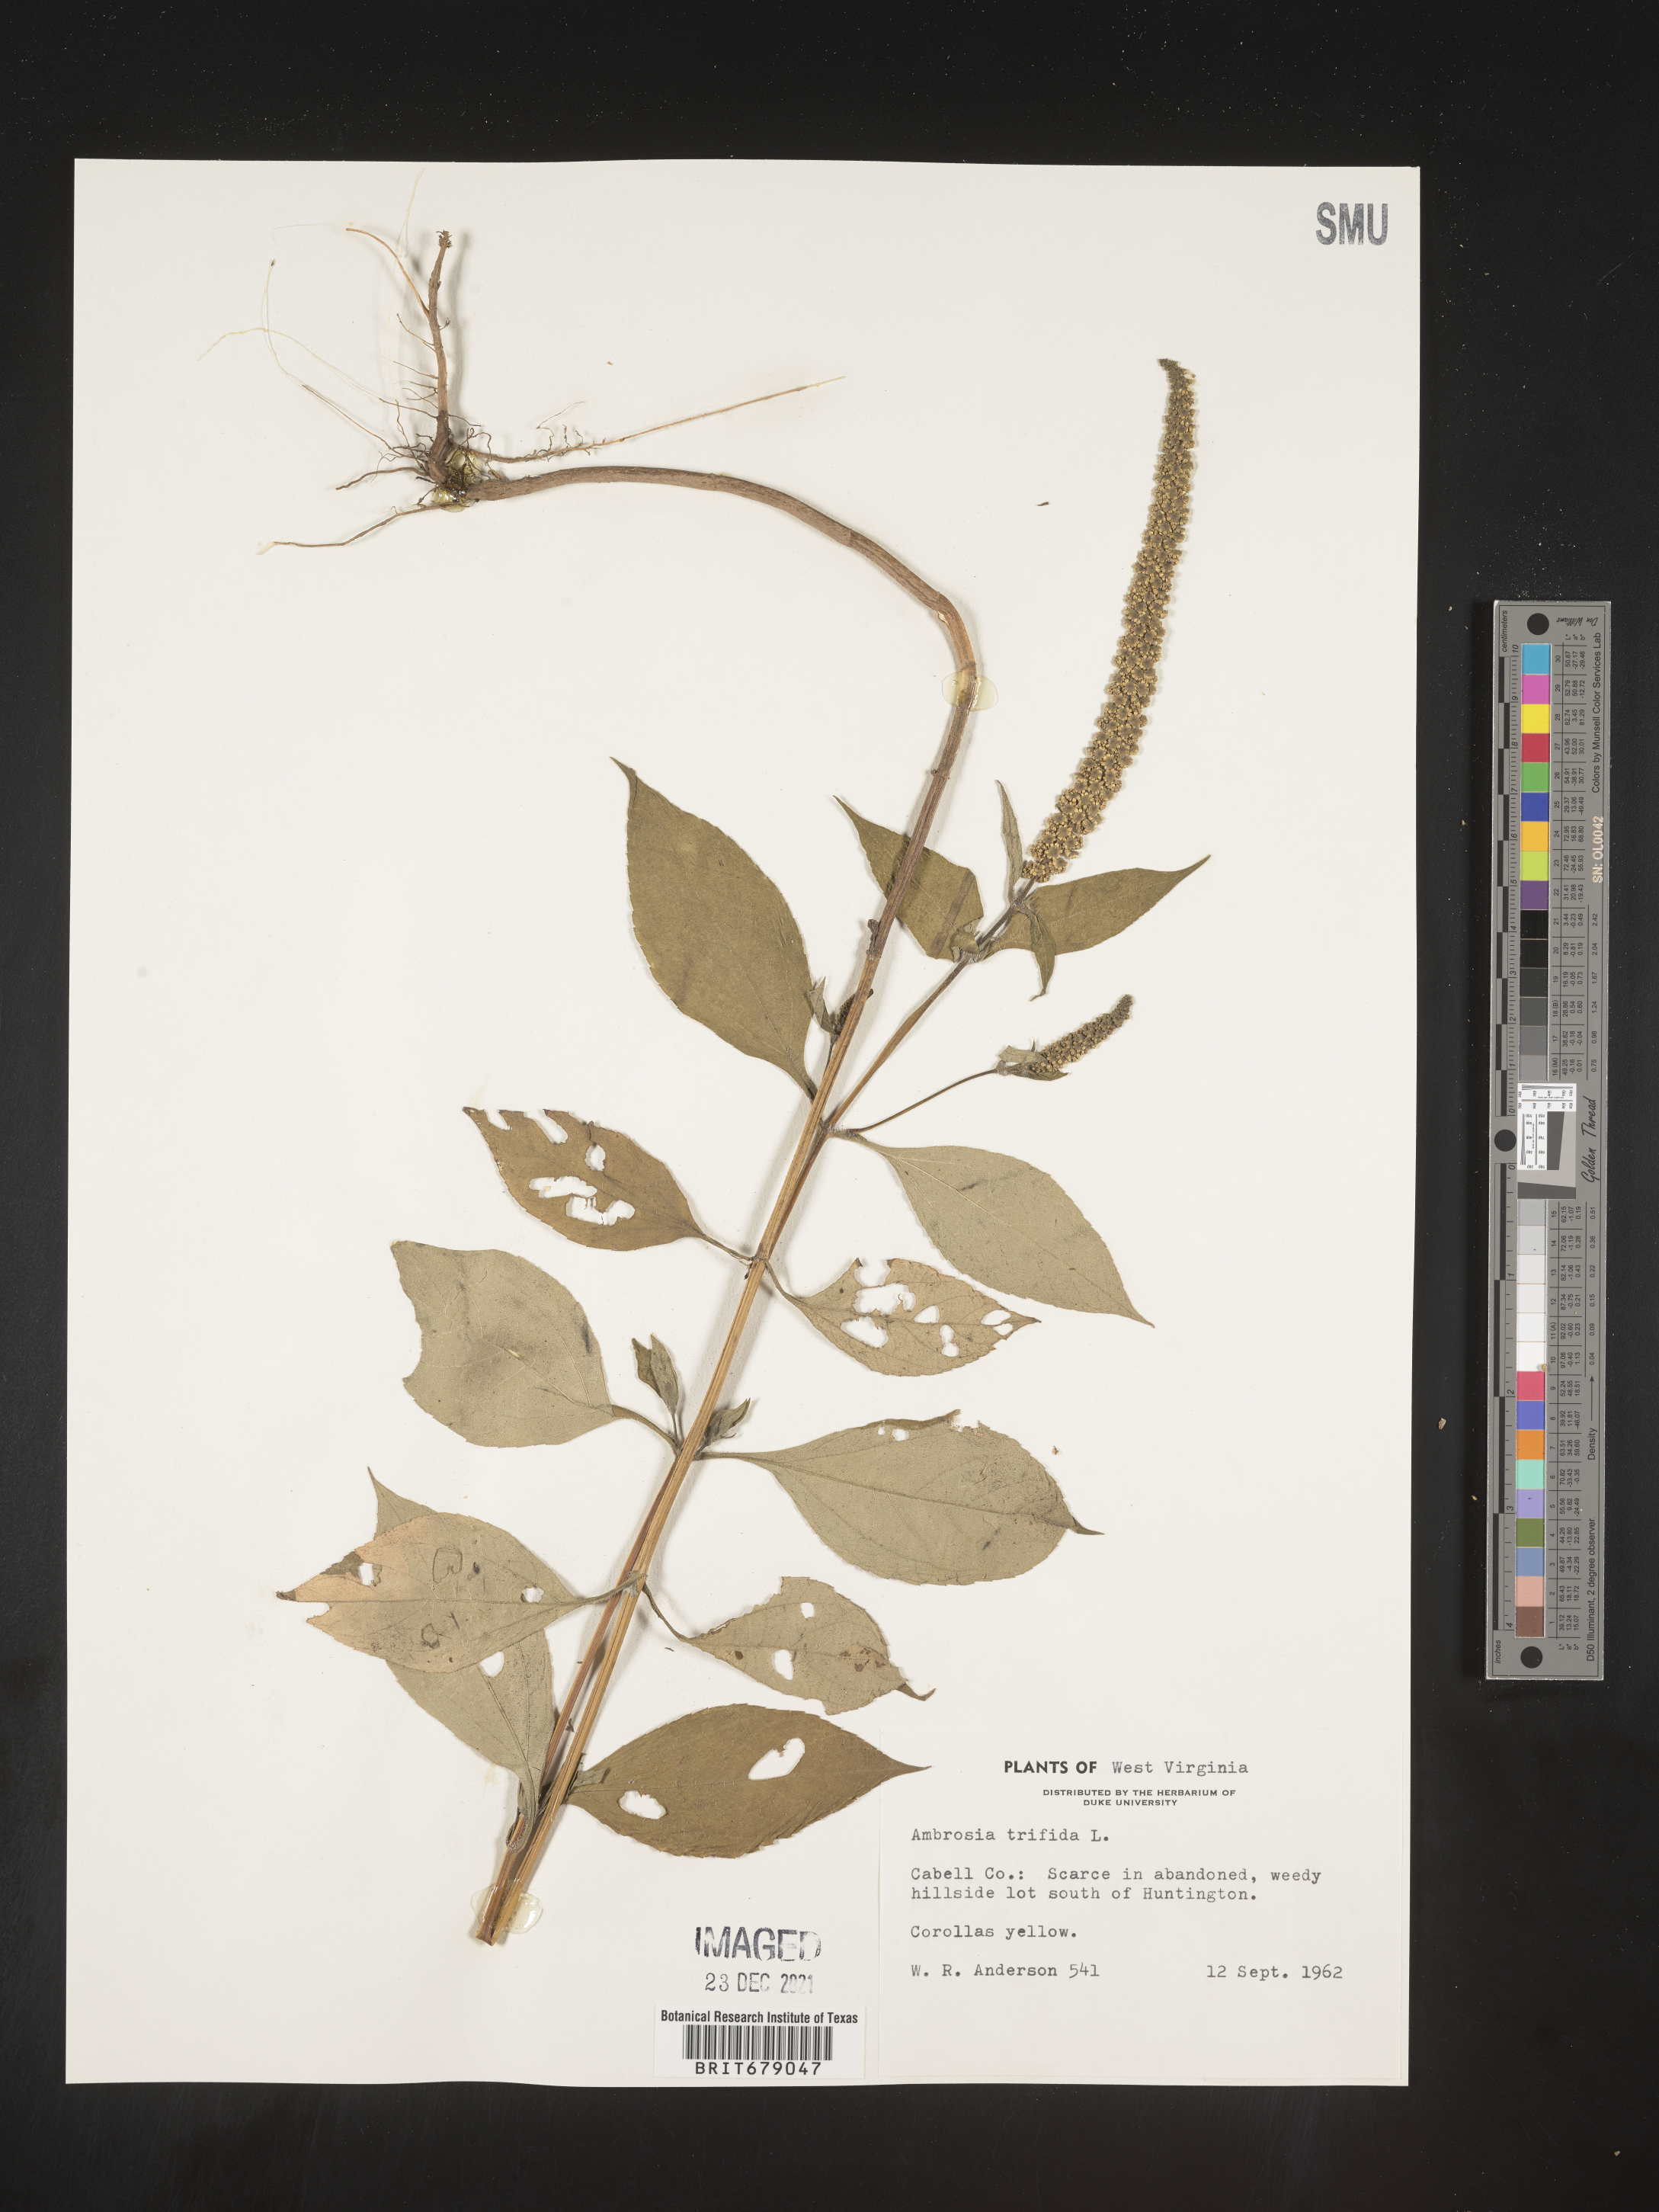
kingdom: Plantae
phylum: Tracheophyta
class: Magnoliopsida
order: Asterales
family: Asteraceae
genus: Ambrosia
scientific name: Ambrosia trifida
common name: Giant ragweed
